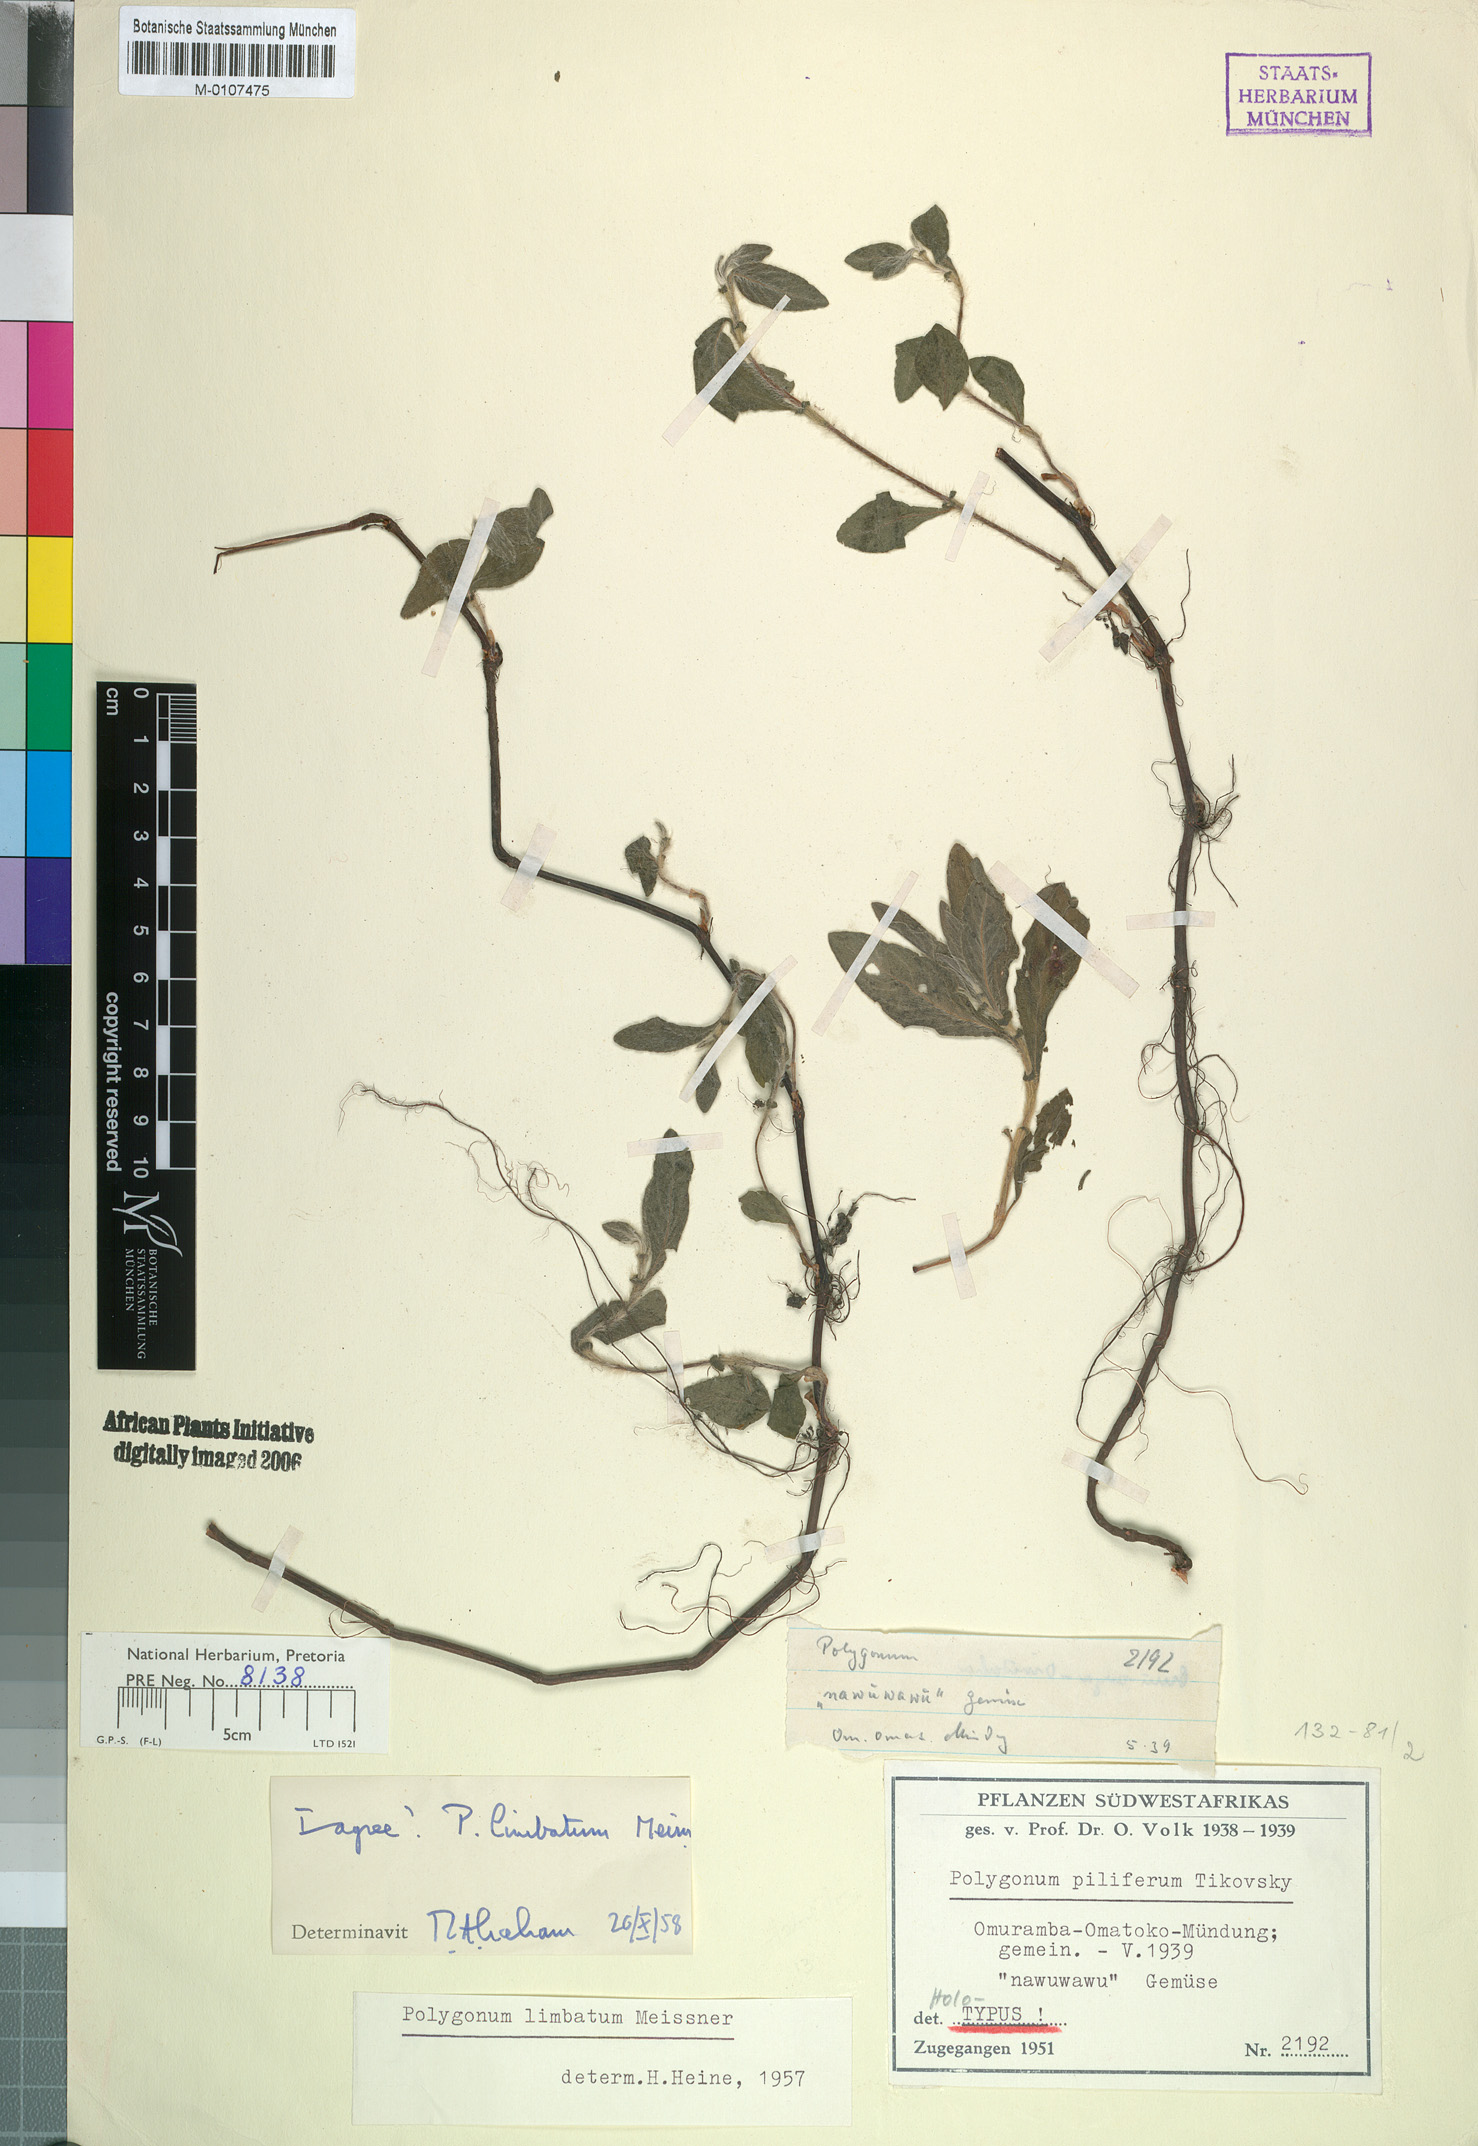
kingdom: Plantae
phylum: Tracheophyta
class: Magnoliopsida
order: Caryophyllales
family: Polygonaceae
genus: Persicaria
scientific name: Persicaria limbata
